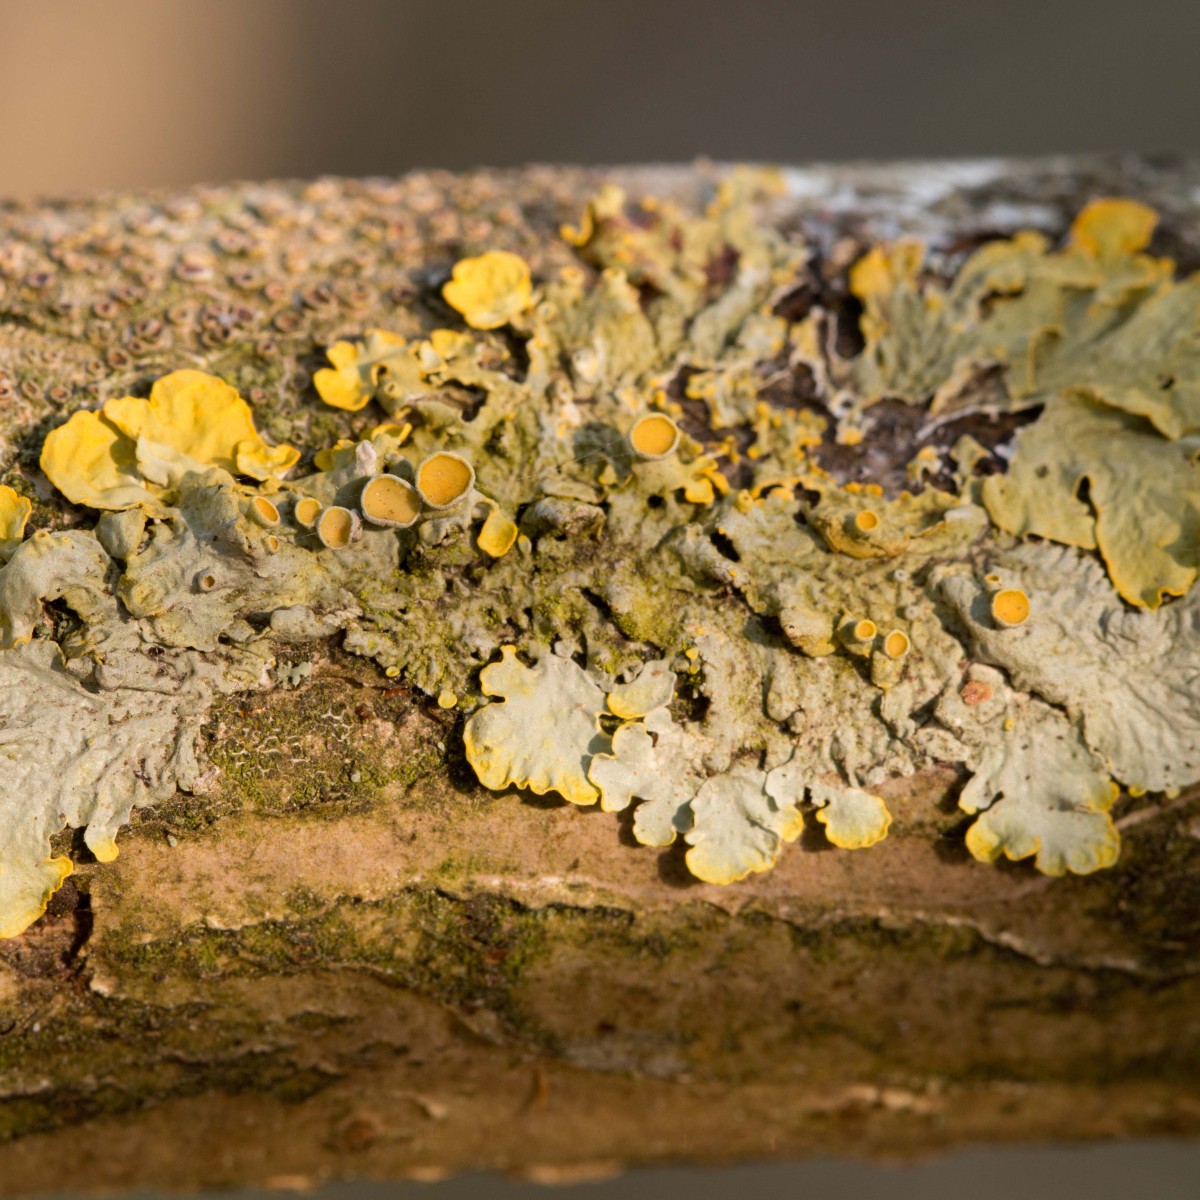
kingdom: Fungi
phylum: Ascomycota
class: Lecanoromycetes
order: Teloschistales
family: Teloschistaceae
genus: Xanthoria
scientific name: Xanthoria parietina
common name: almindelig væggelav
